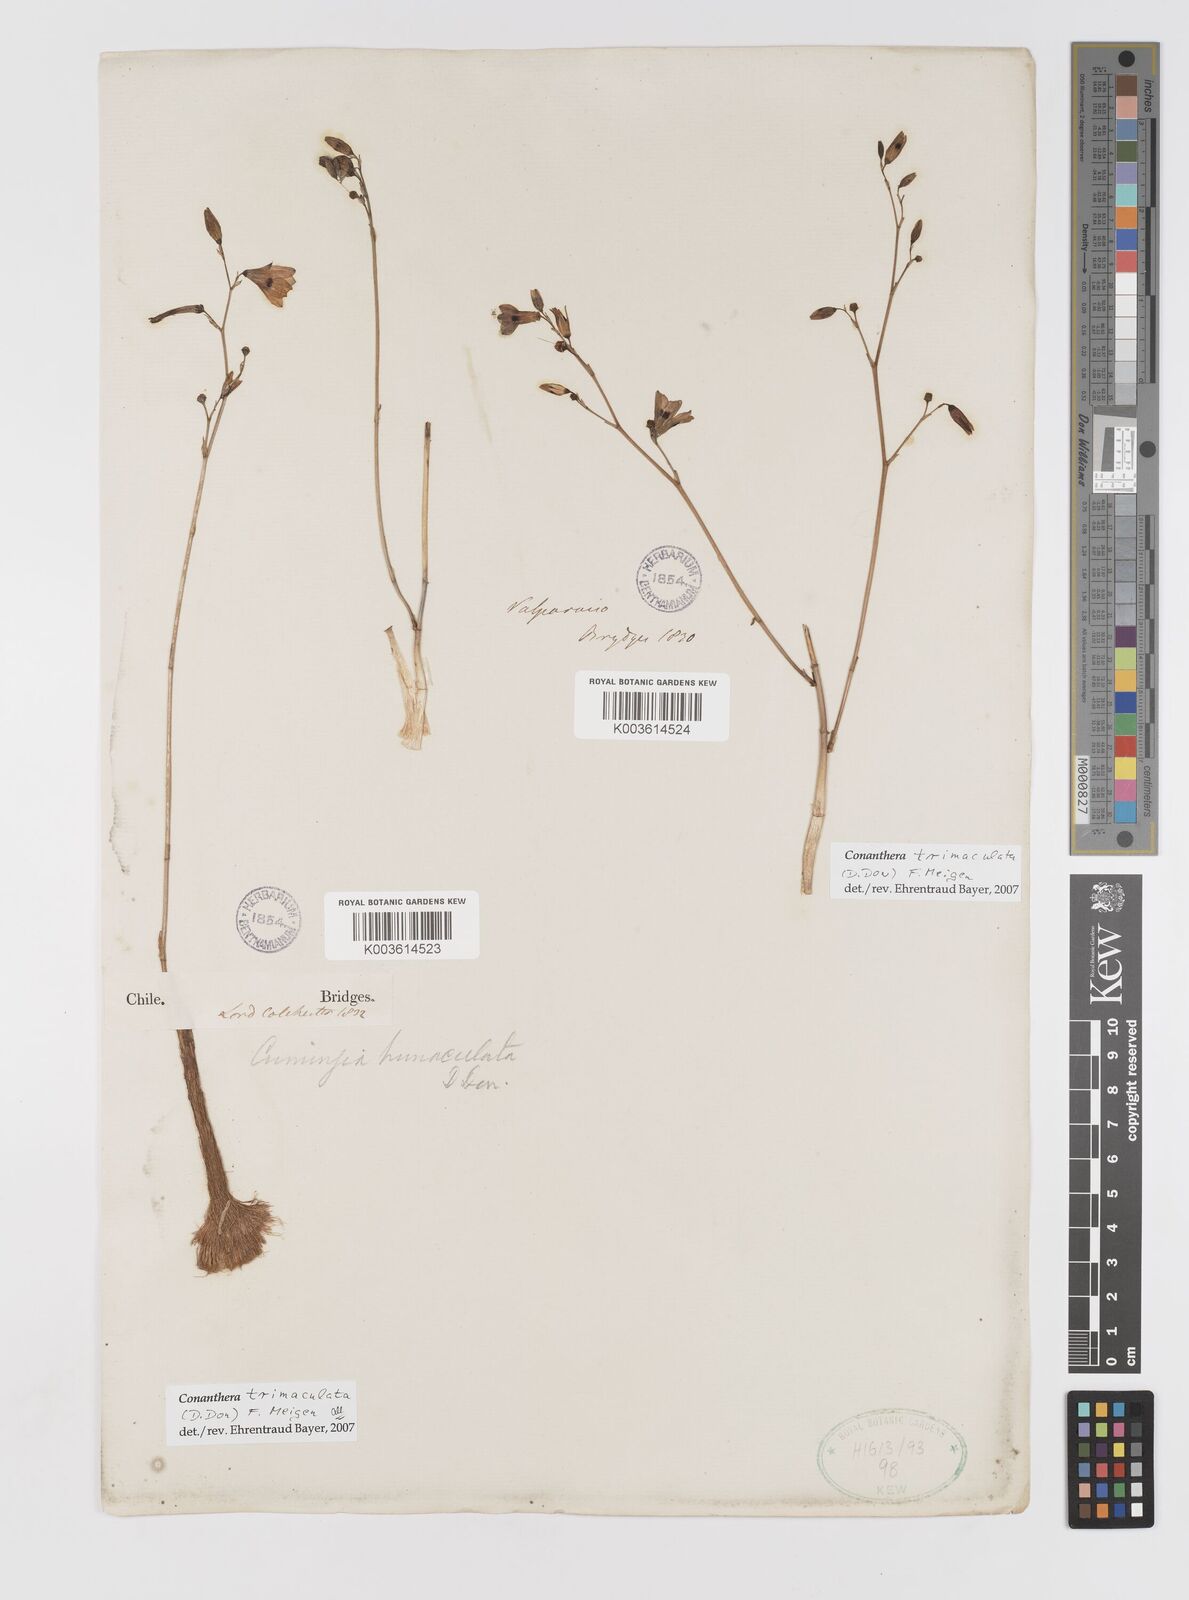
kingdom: Plantae
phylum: Tracheophyta
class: Liliopsida
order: Asparagales
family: Tecophilaeaceae
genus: Conanthera
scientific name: Conanthera trimaculata
